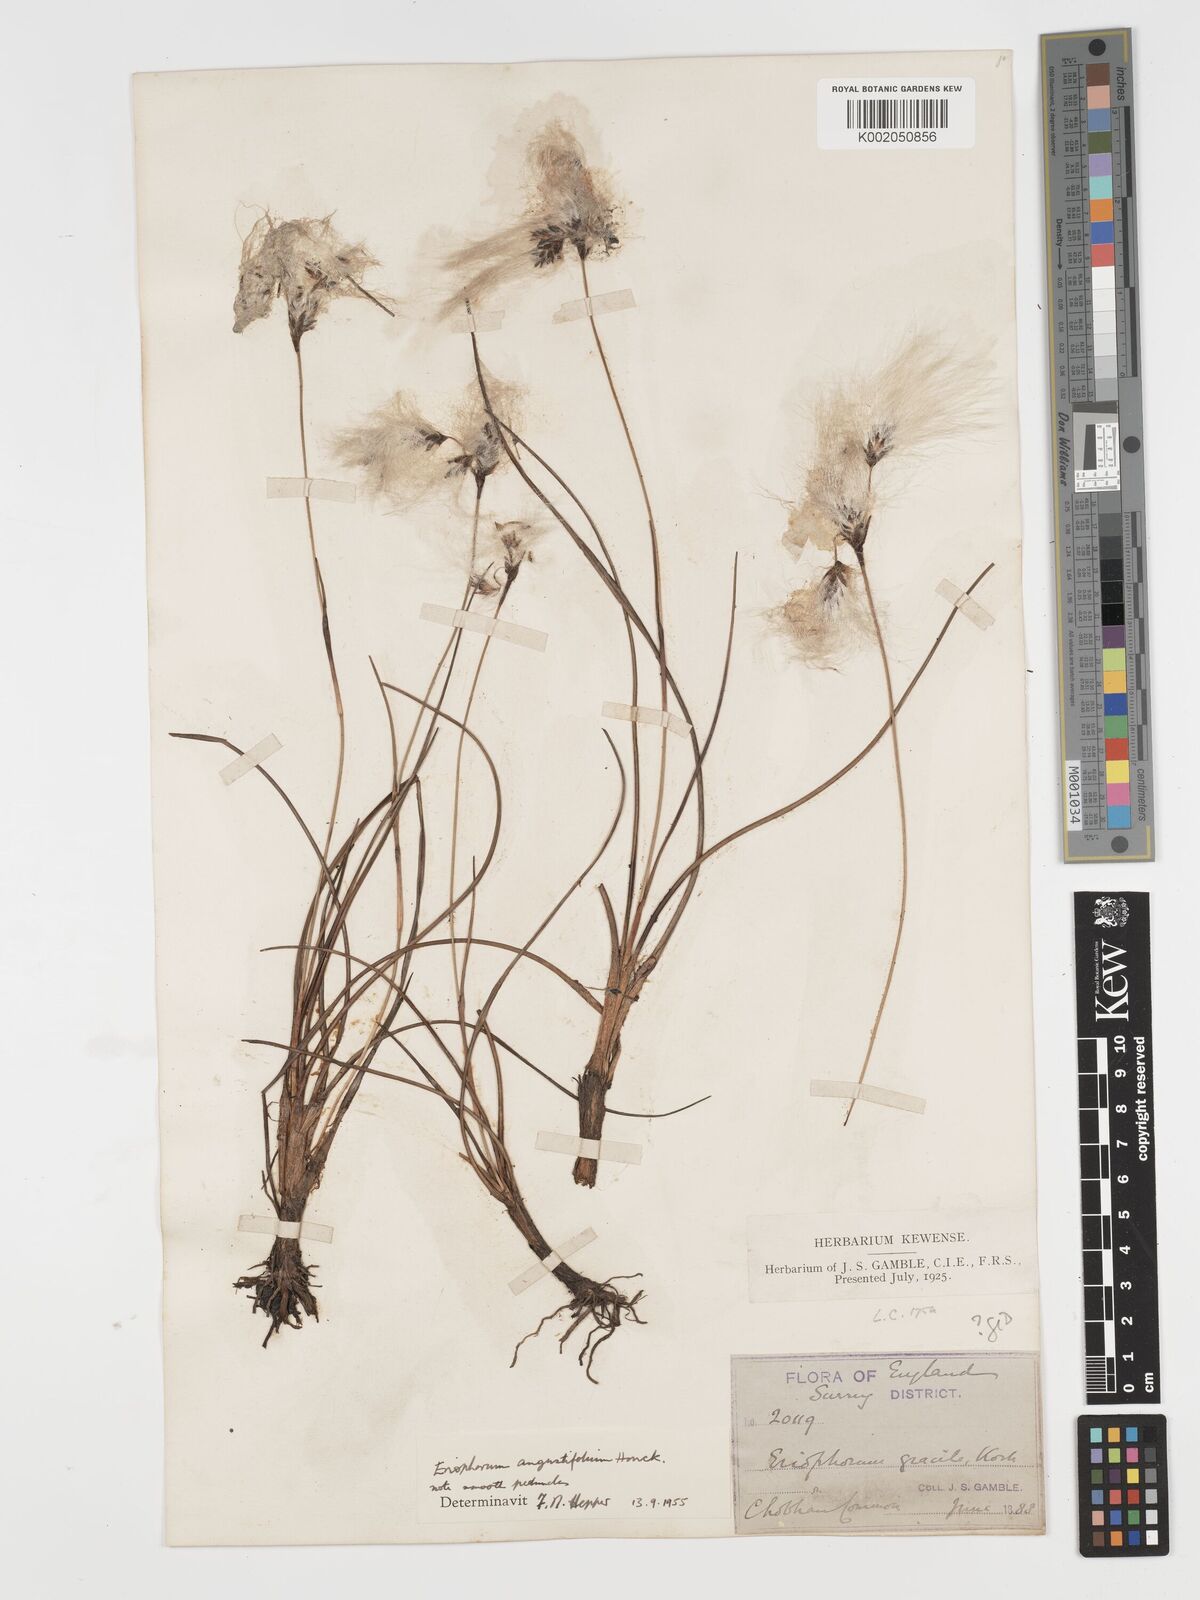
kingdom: Plantae
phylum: Tracheophyta
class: Liliopsida
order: Poales
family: Cyperaceae
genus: Eriophorum
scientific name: Eriophorum angustifolium
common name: Common cottongrass
